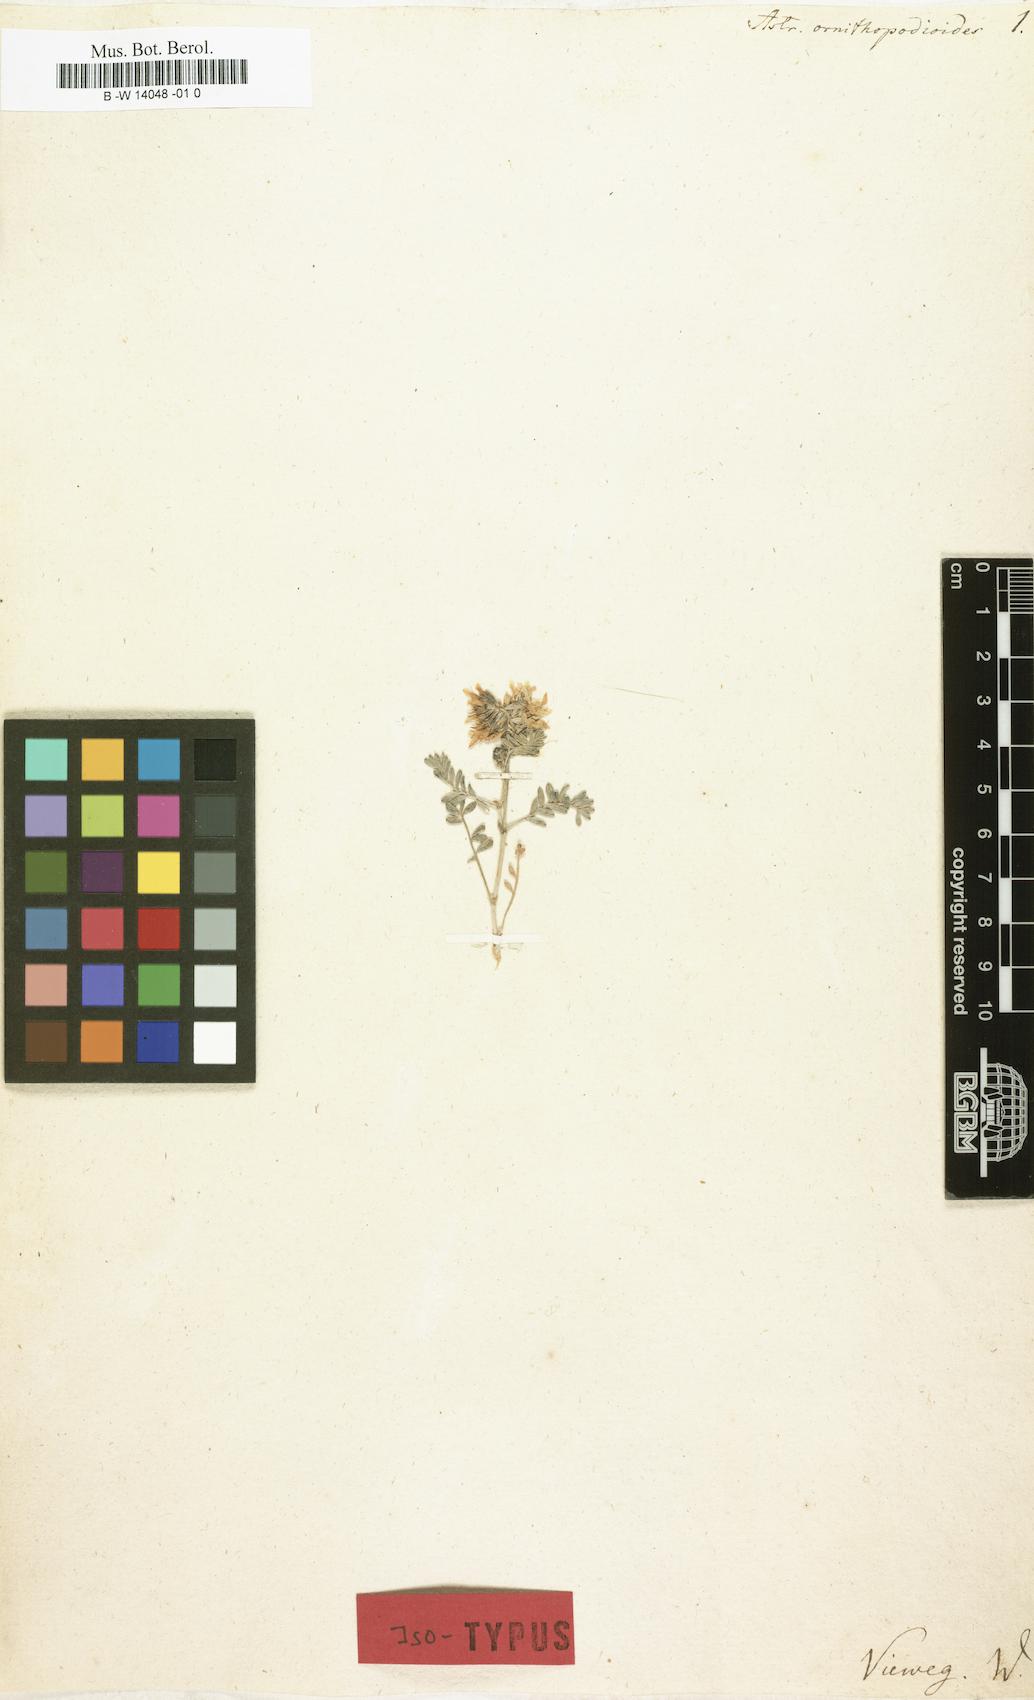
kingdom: Plantae
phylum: Tracheophyta
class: Magnoliopsida
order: Fabales
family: Fabaceae
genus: Astragalus
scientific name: Astragalus ornithopodioides
